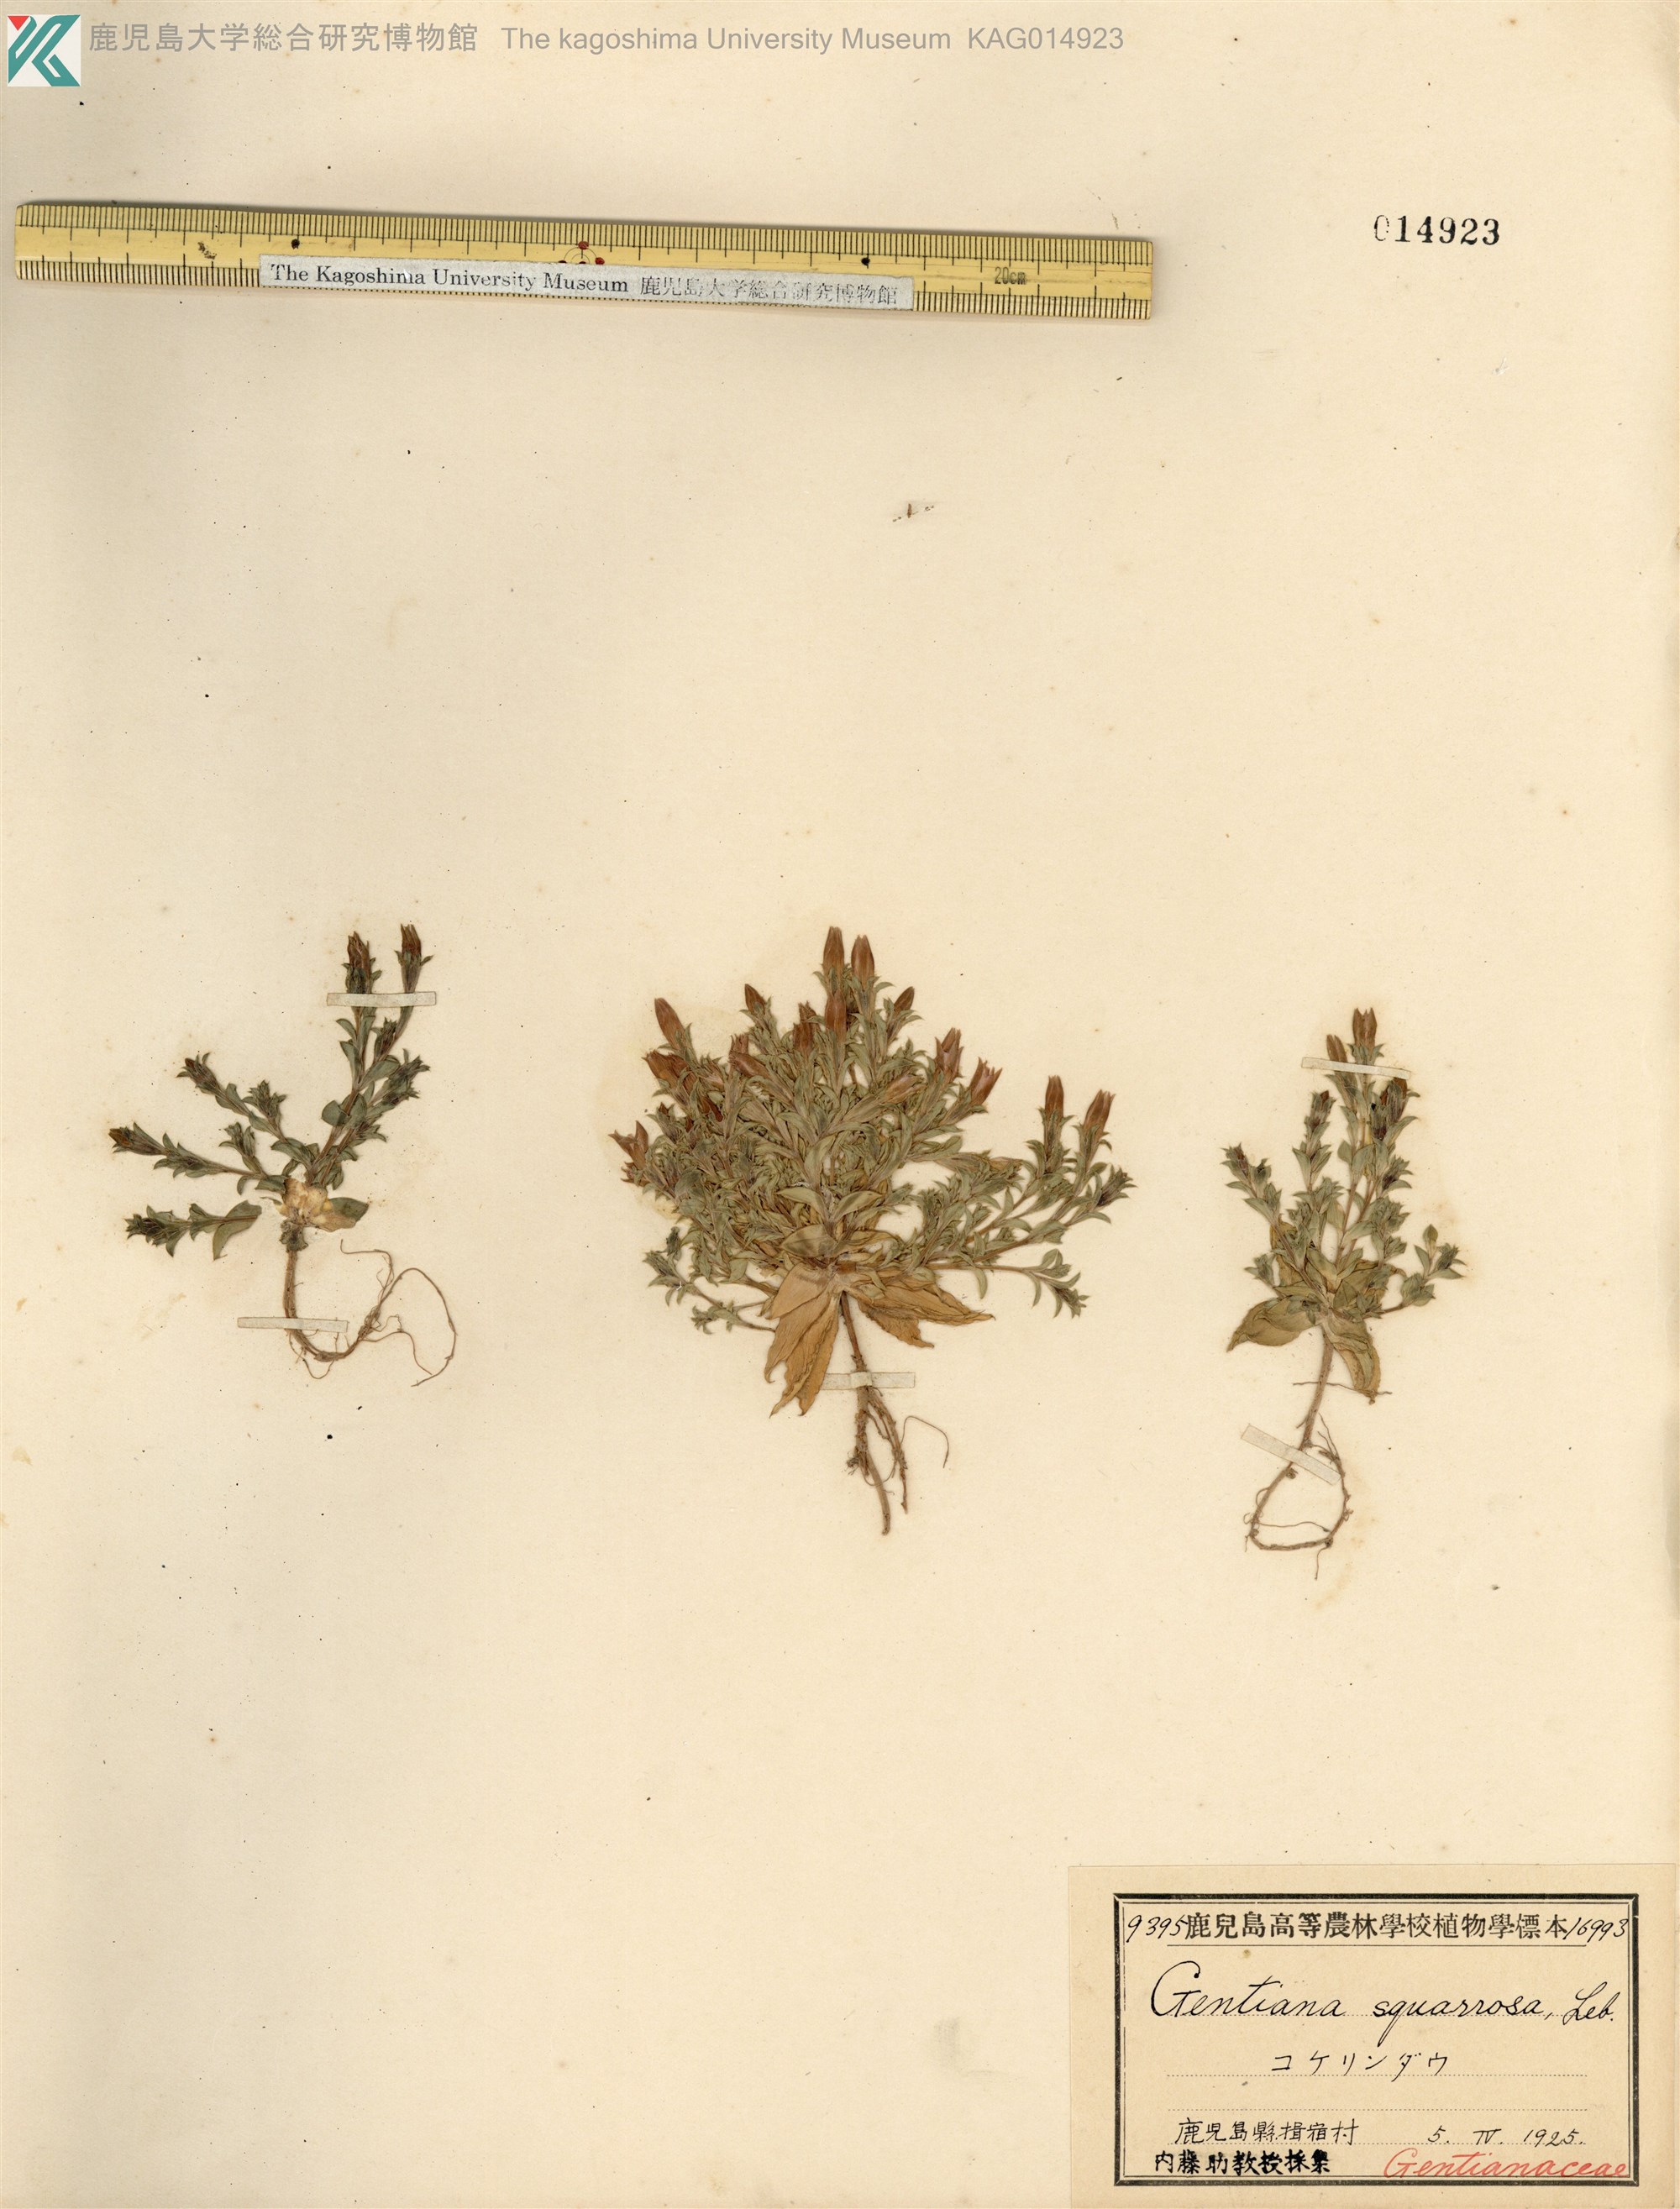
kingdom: Plantae
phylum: Tracheophyta
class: Magnoliopsida
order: Gentianales
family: Gentianaceae
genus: Gentiana
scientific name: Gentiana squarrosa
